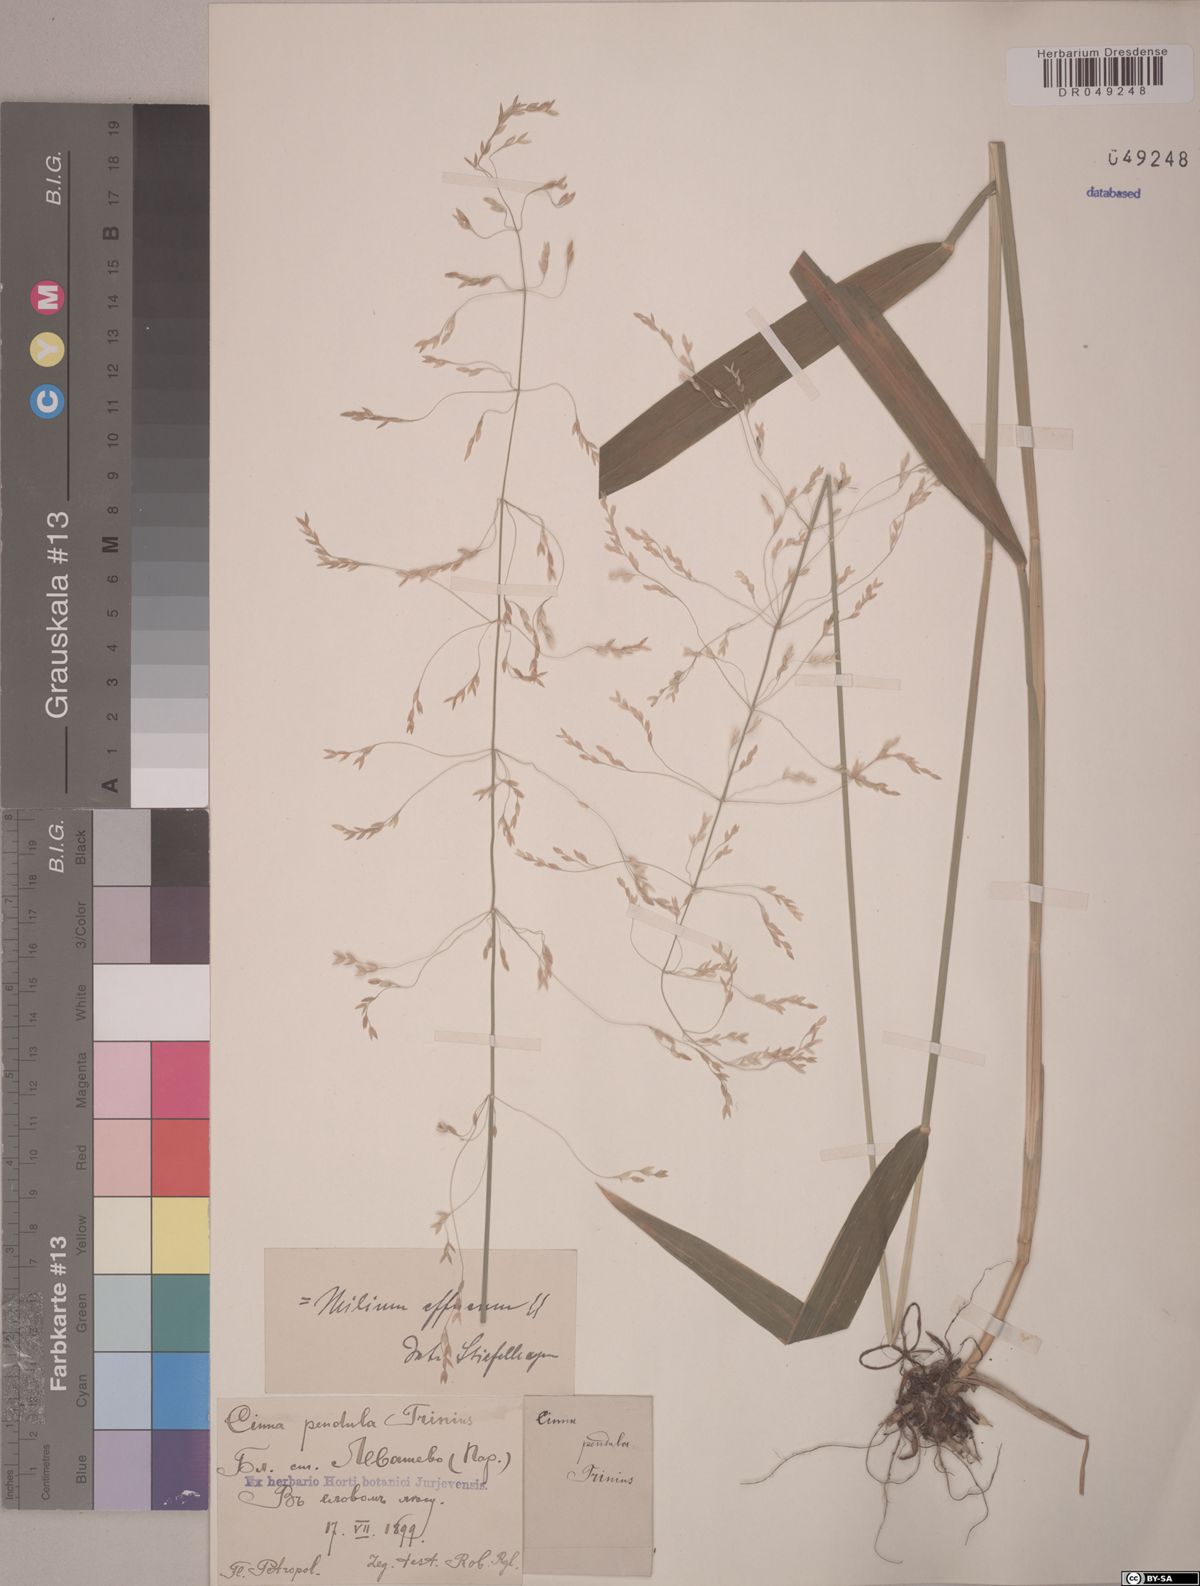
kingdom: Plantae
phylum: Tracheophyta
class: Liliopsida
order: Poales
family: Poaceae
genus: Milium
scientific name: Milium effusum
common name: Wood millet
